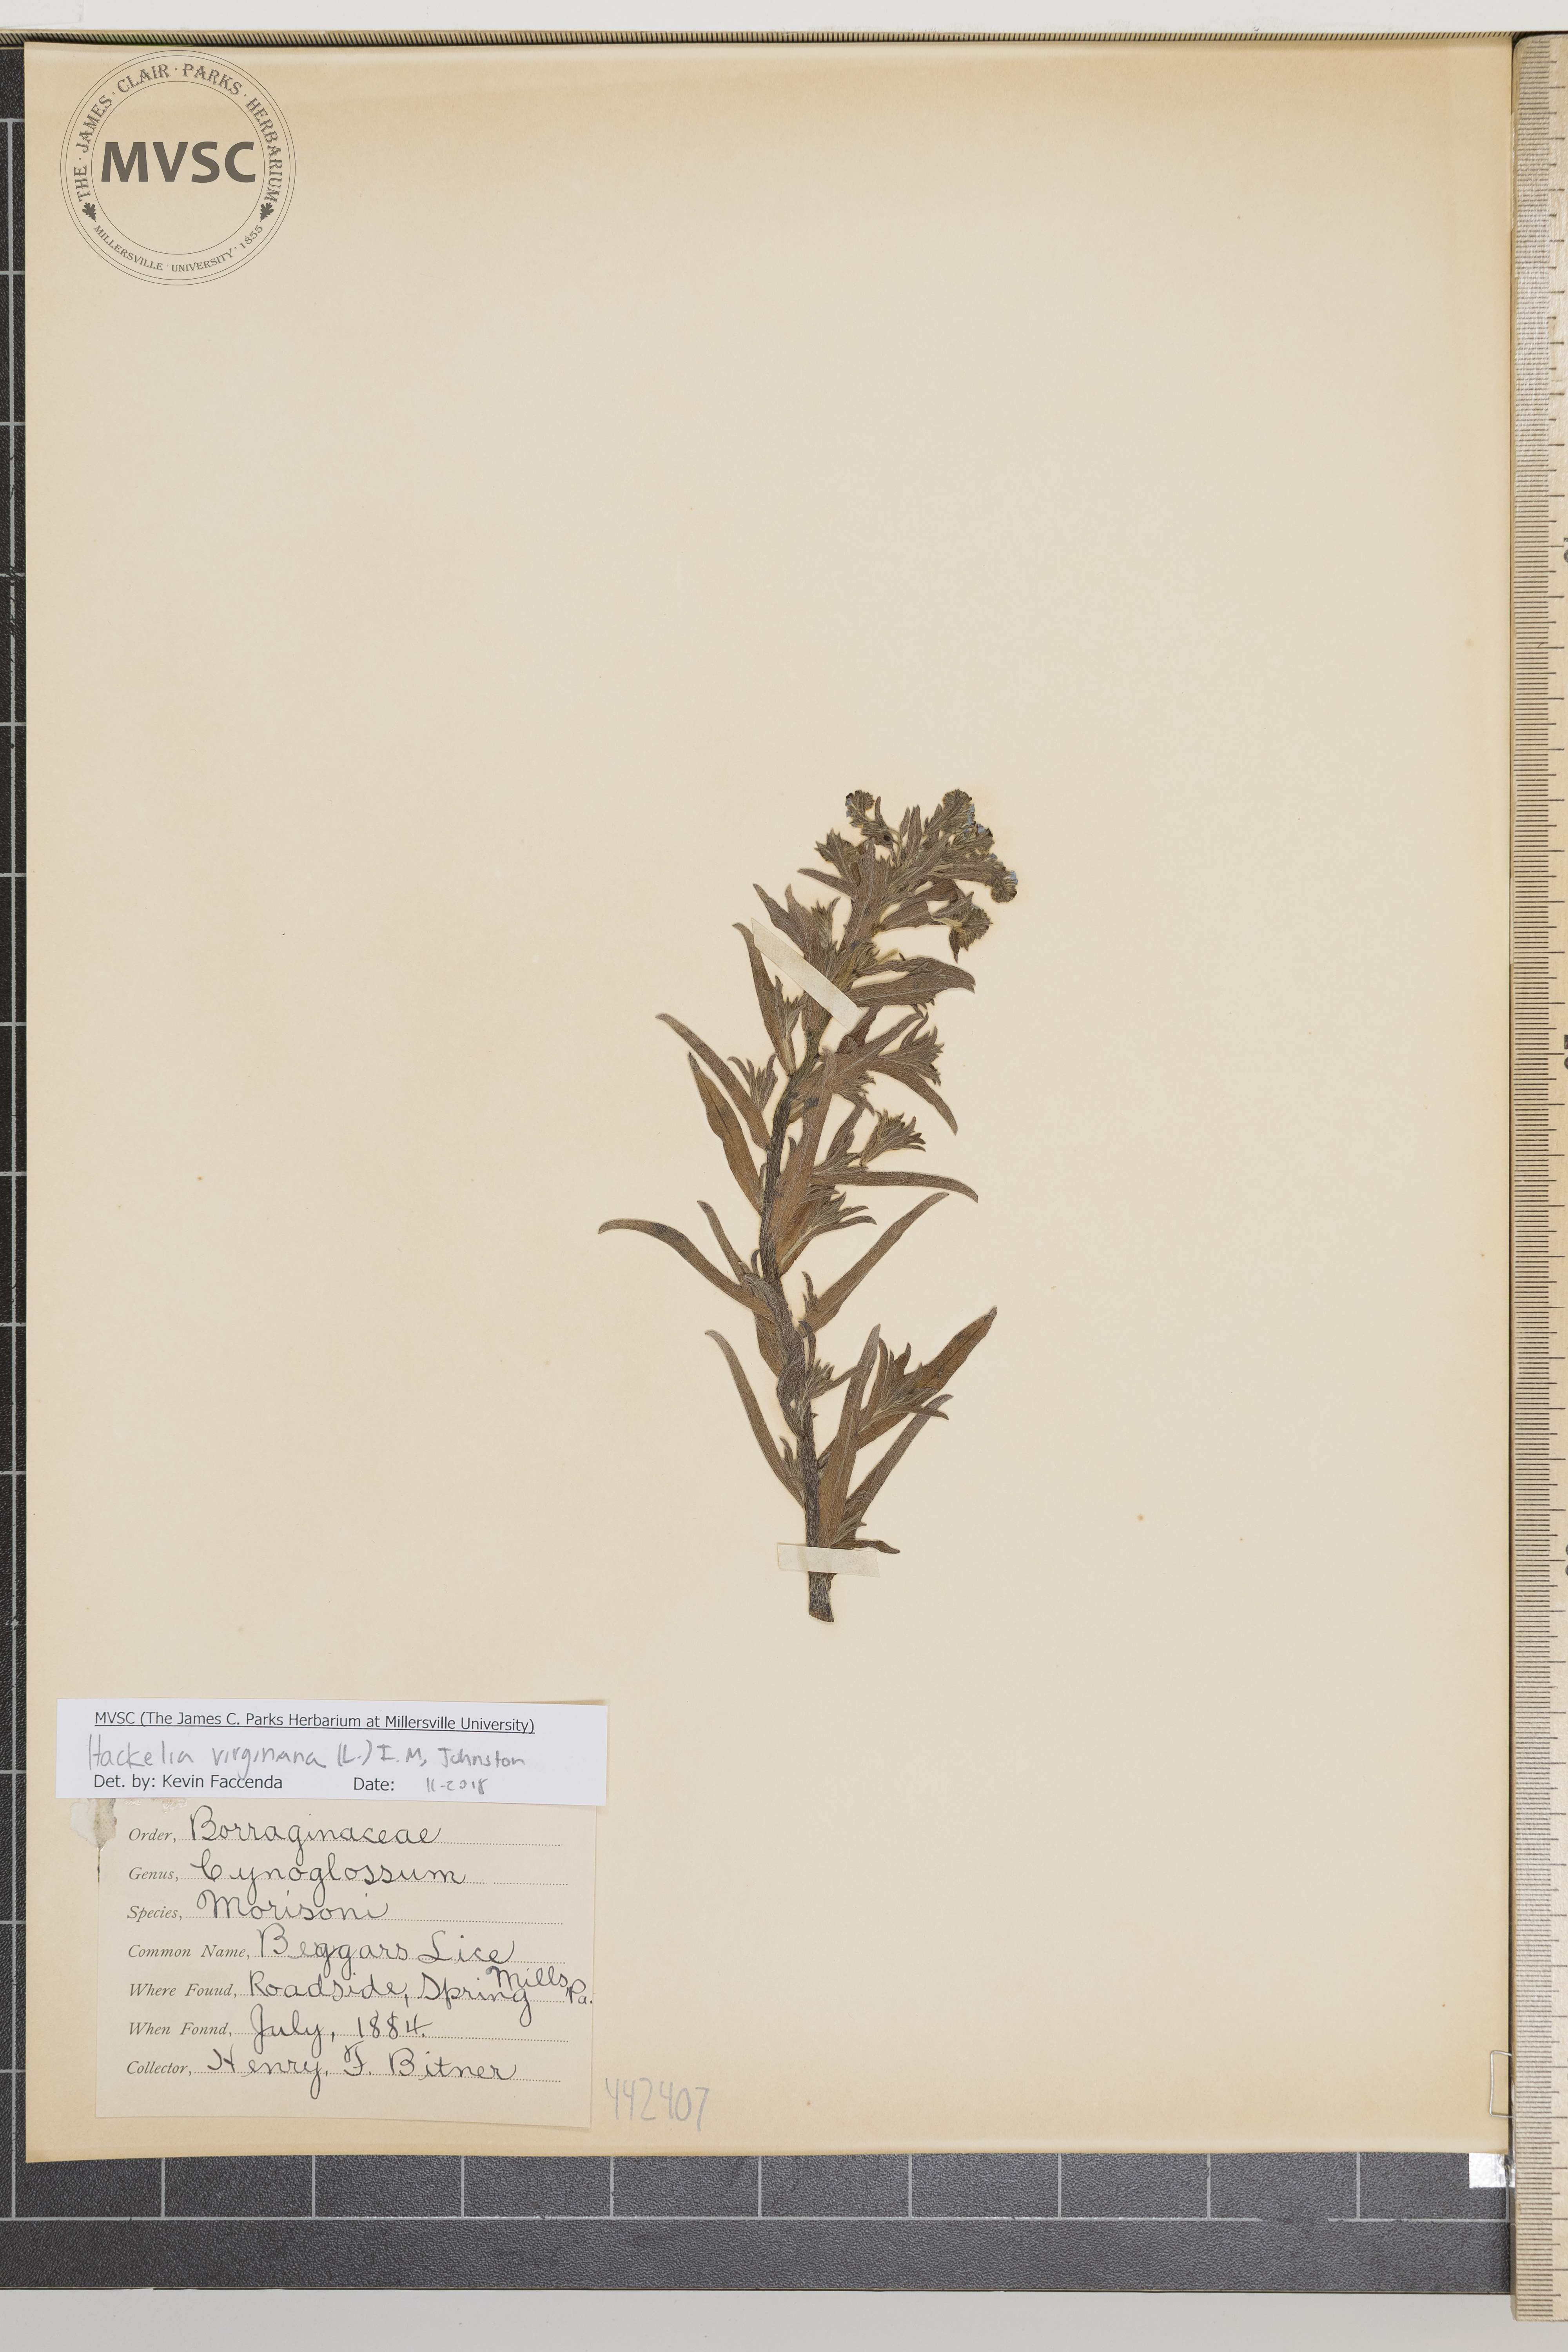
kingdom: Plantae
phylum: Tracheophyta
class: Magnoliopsida
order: Boraginales
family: Boraginaceae
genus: Hackelia
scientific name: Hackelia virginiana
